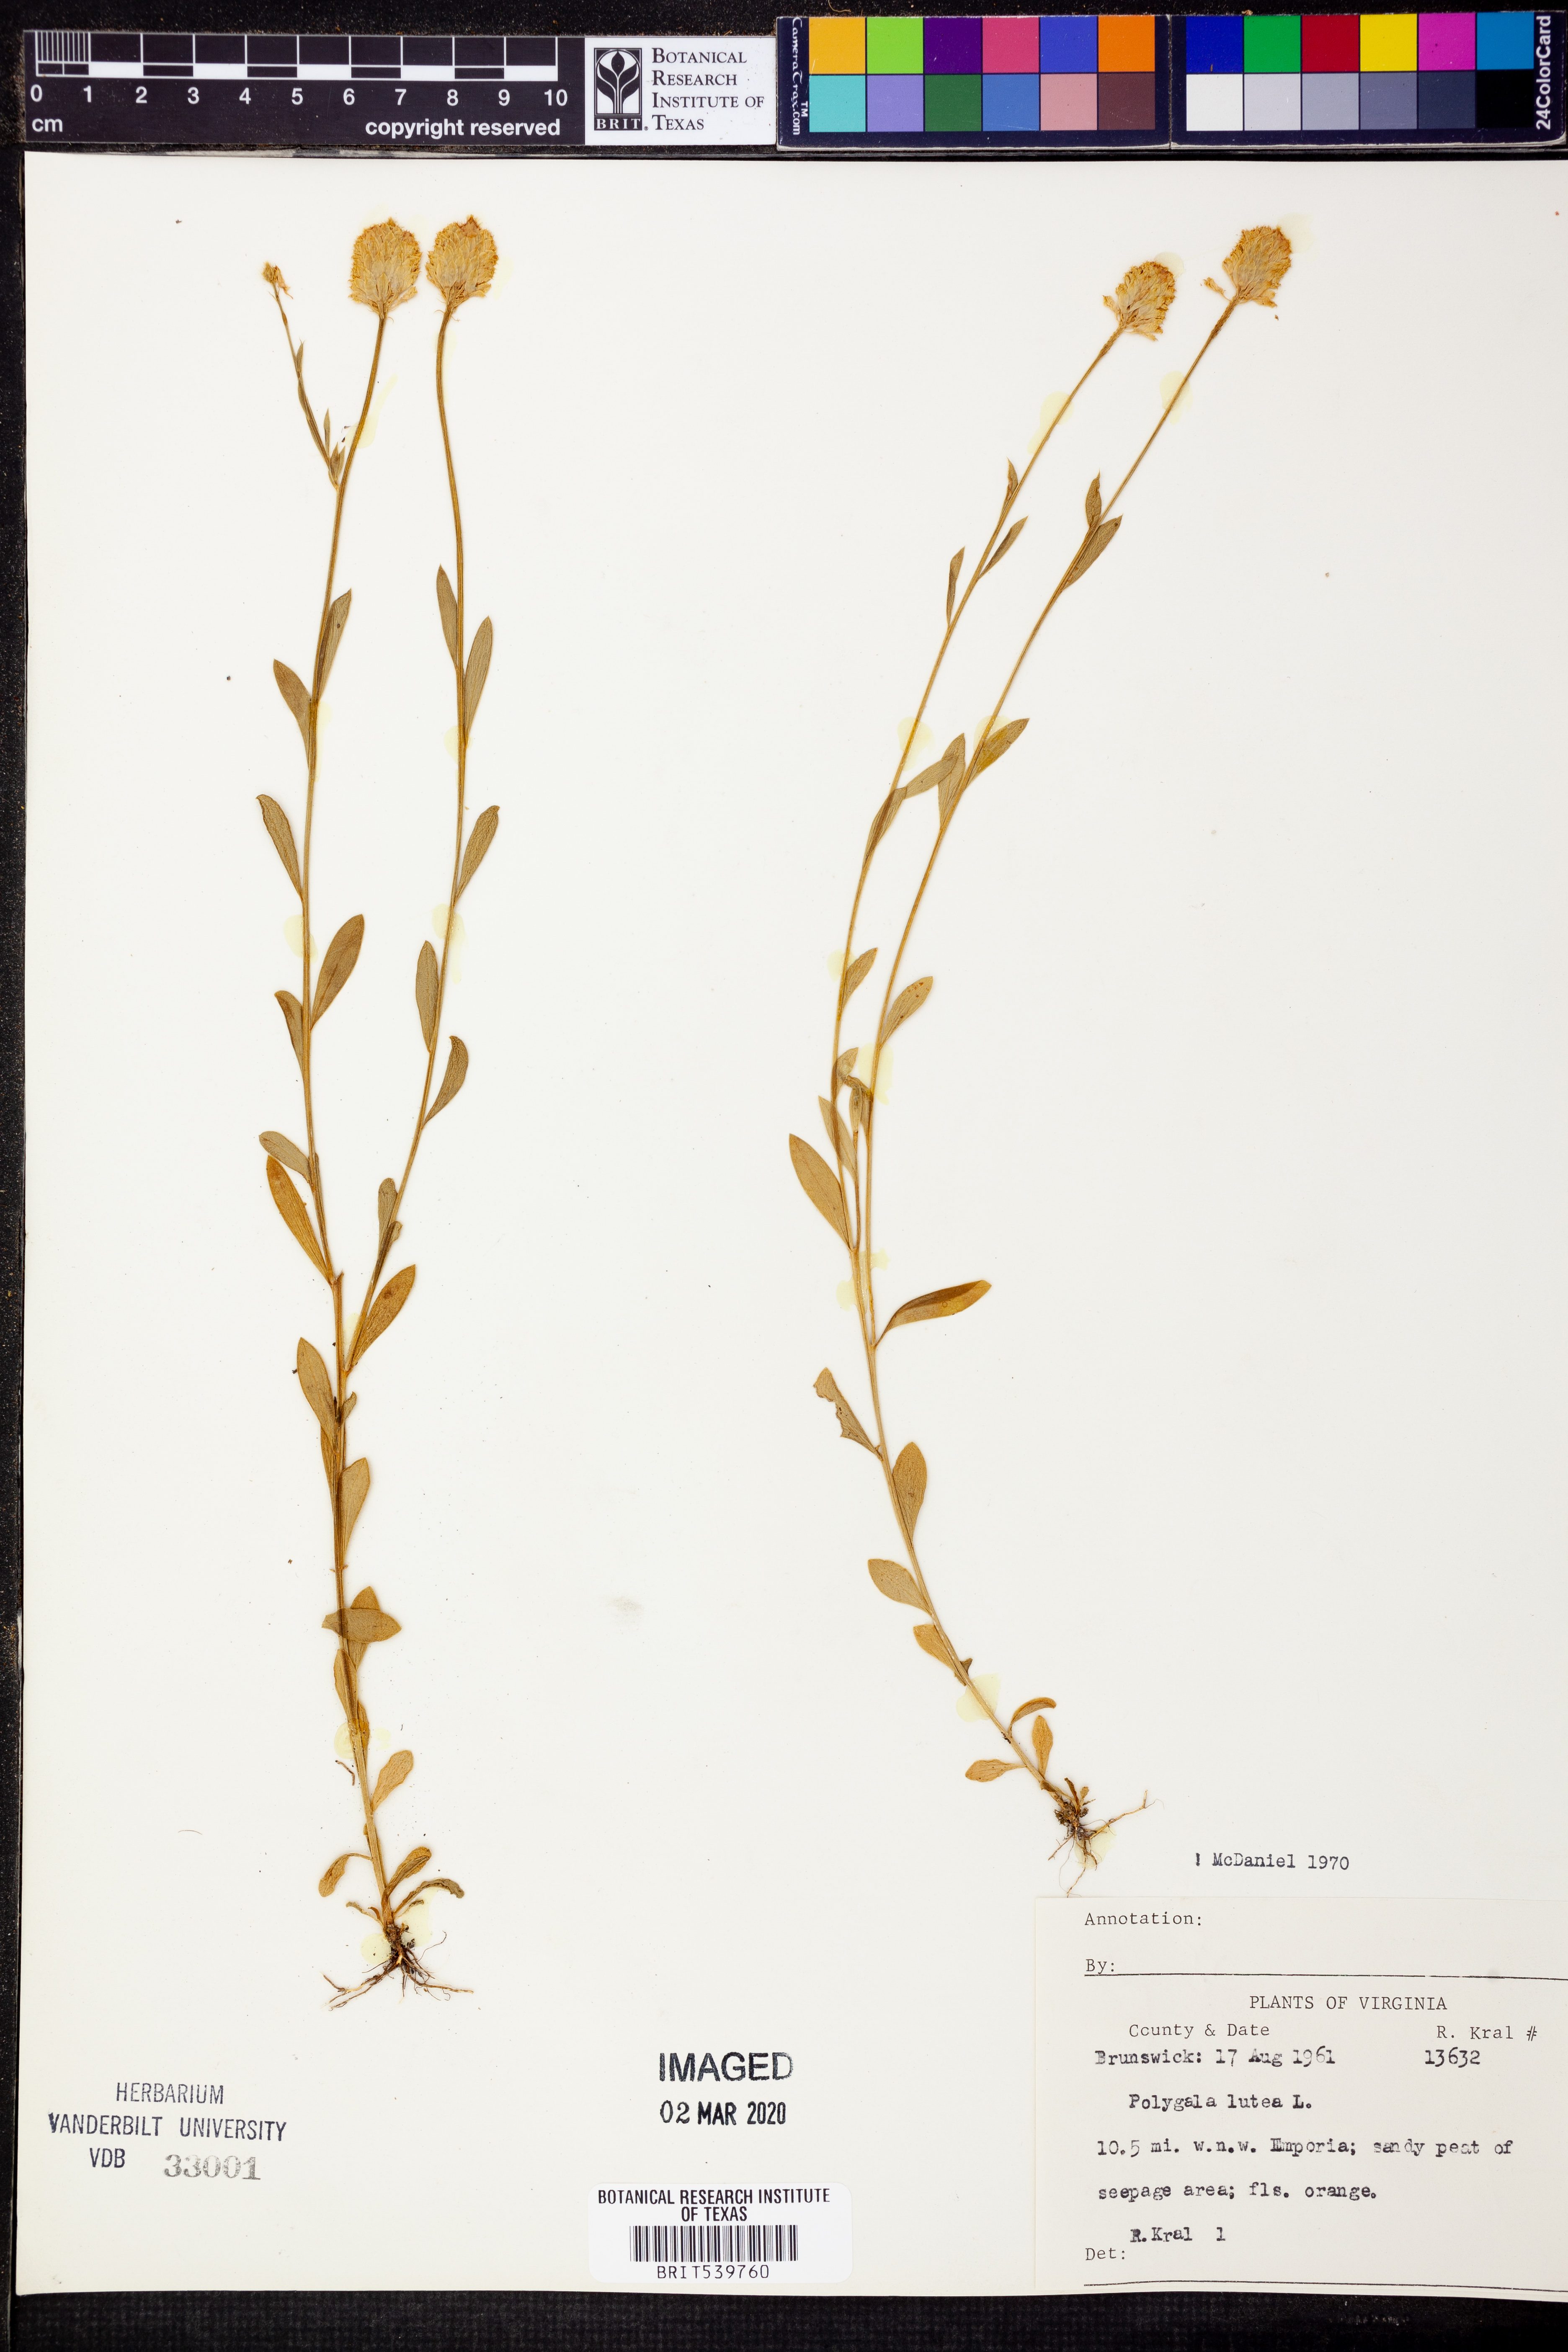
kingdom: Plantae
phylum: Tracheophyta
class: Magnoliopsida
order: Fabales
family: Polygalaceae
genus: Polygala
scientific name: Polygala lutea
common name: Orange milkwort
